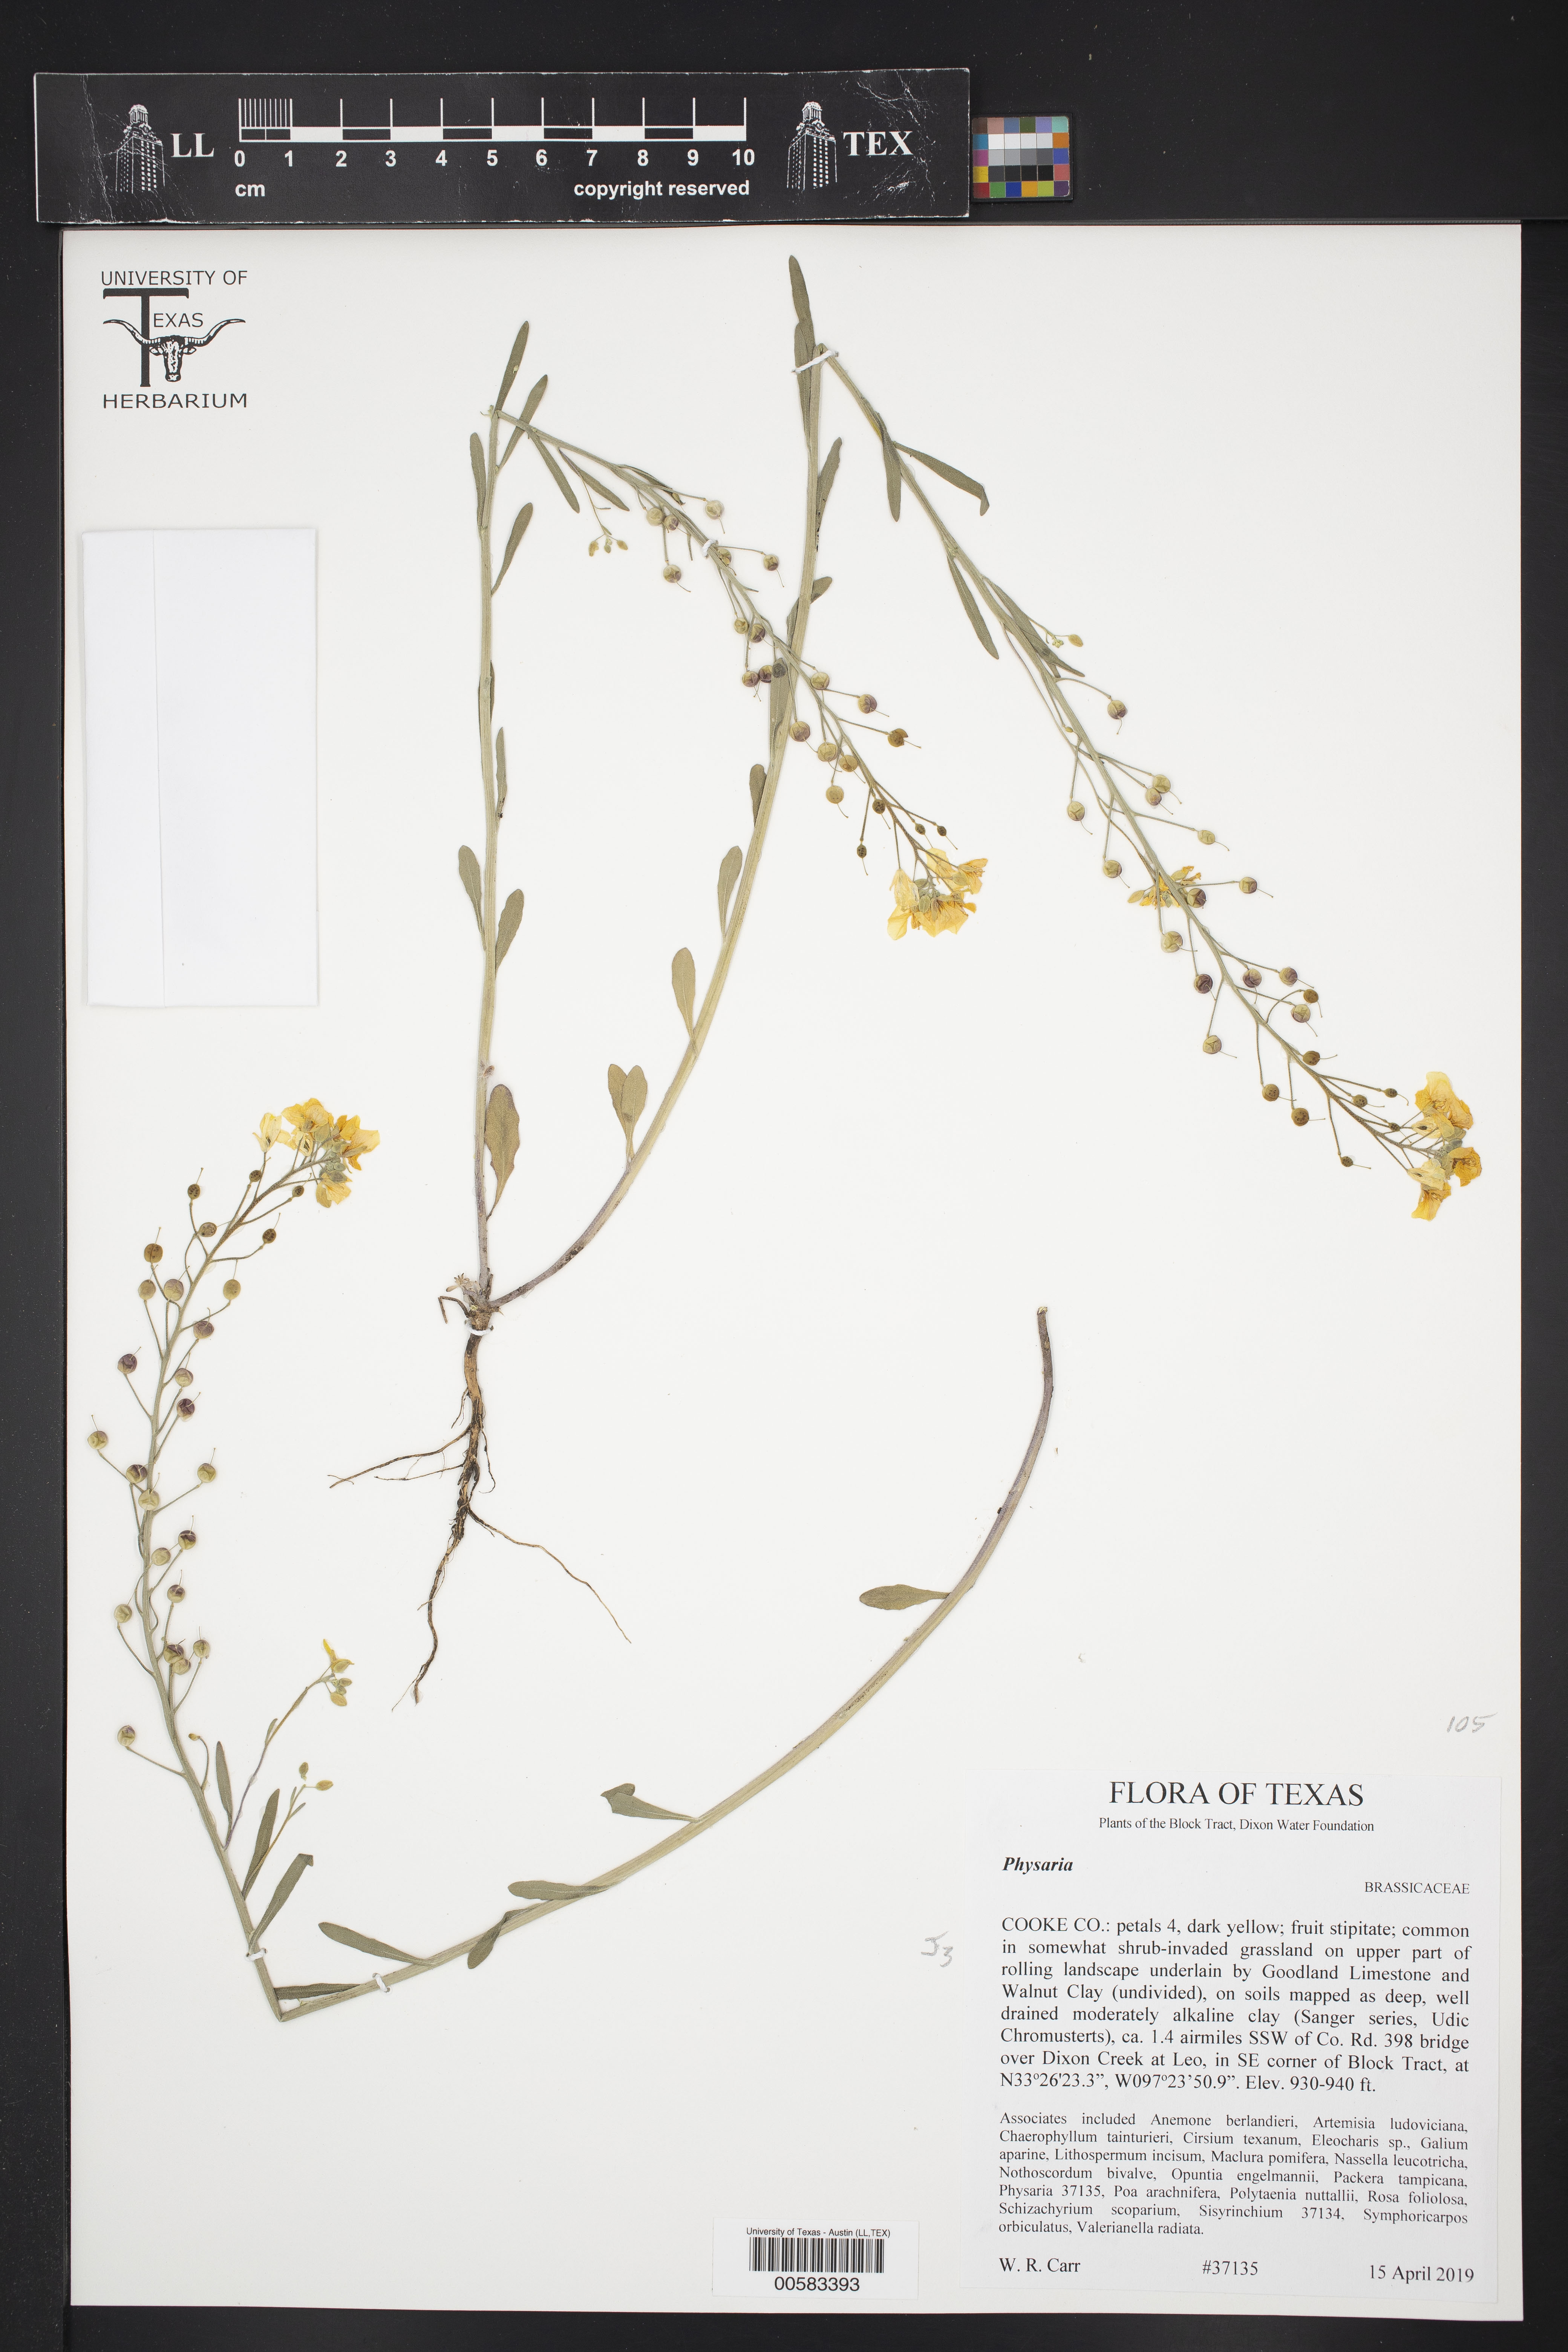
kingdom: Plantae
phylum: Tracheophyta
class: Magnoliopsida
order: Brassicales
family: Brassicaceae
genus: Physaria
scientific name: Physaria
